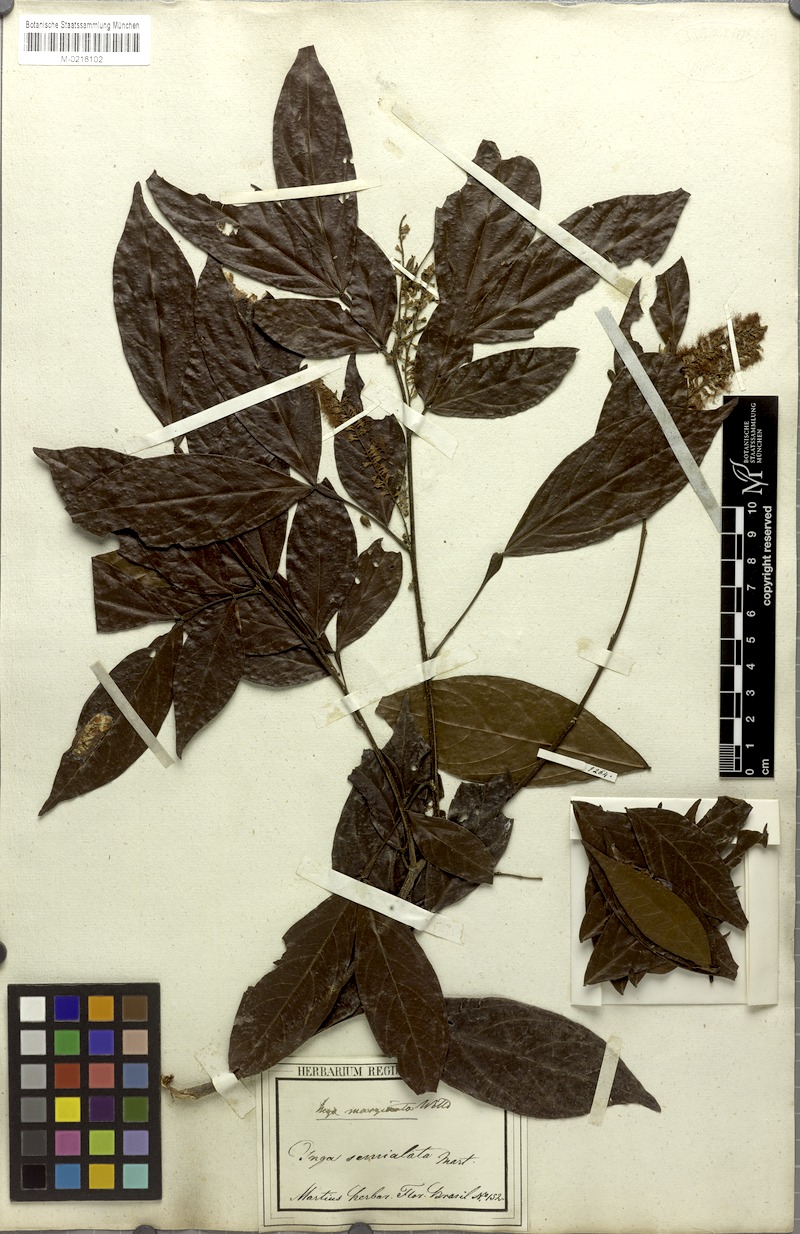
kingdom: Plantae
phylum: Tracheophyta
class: Magnoliopsida
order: Fabales
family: Fabaceae
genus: Inga
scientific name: Inga marginata
